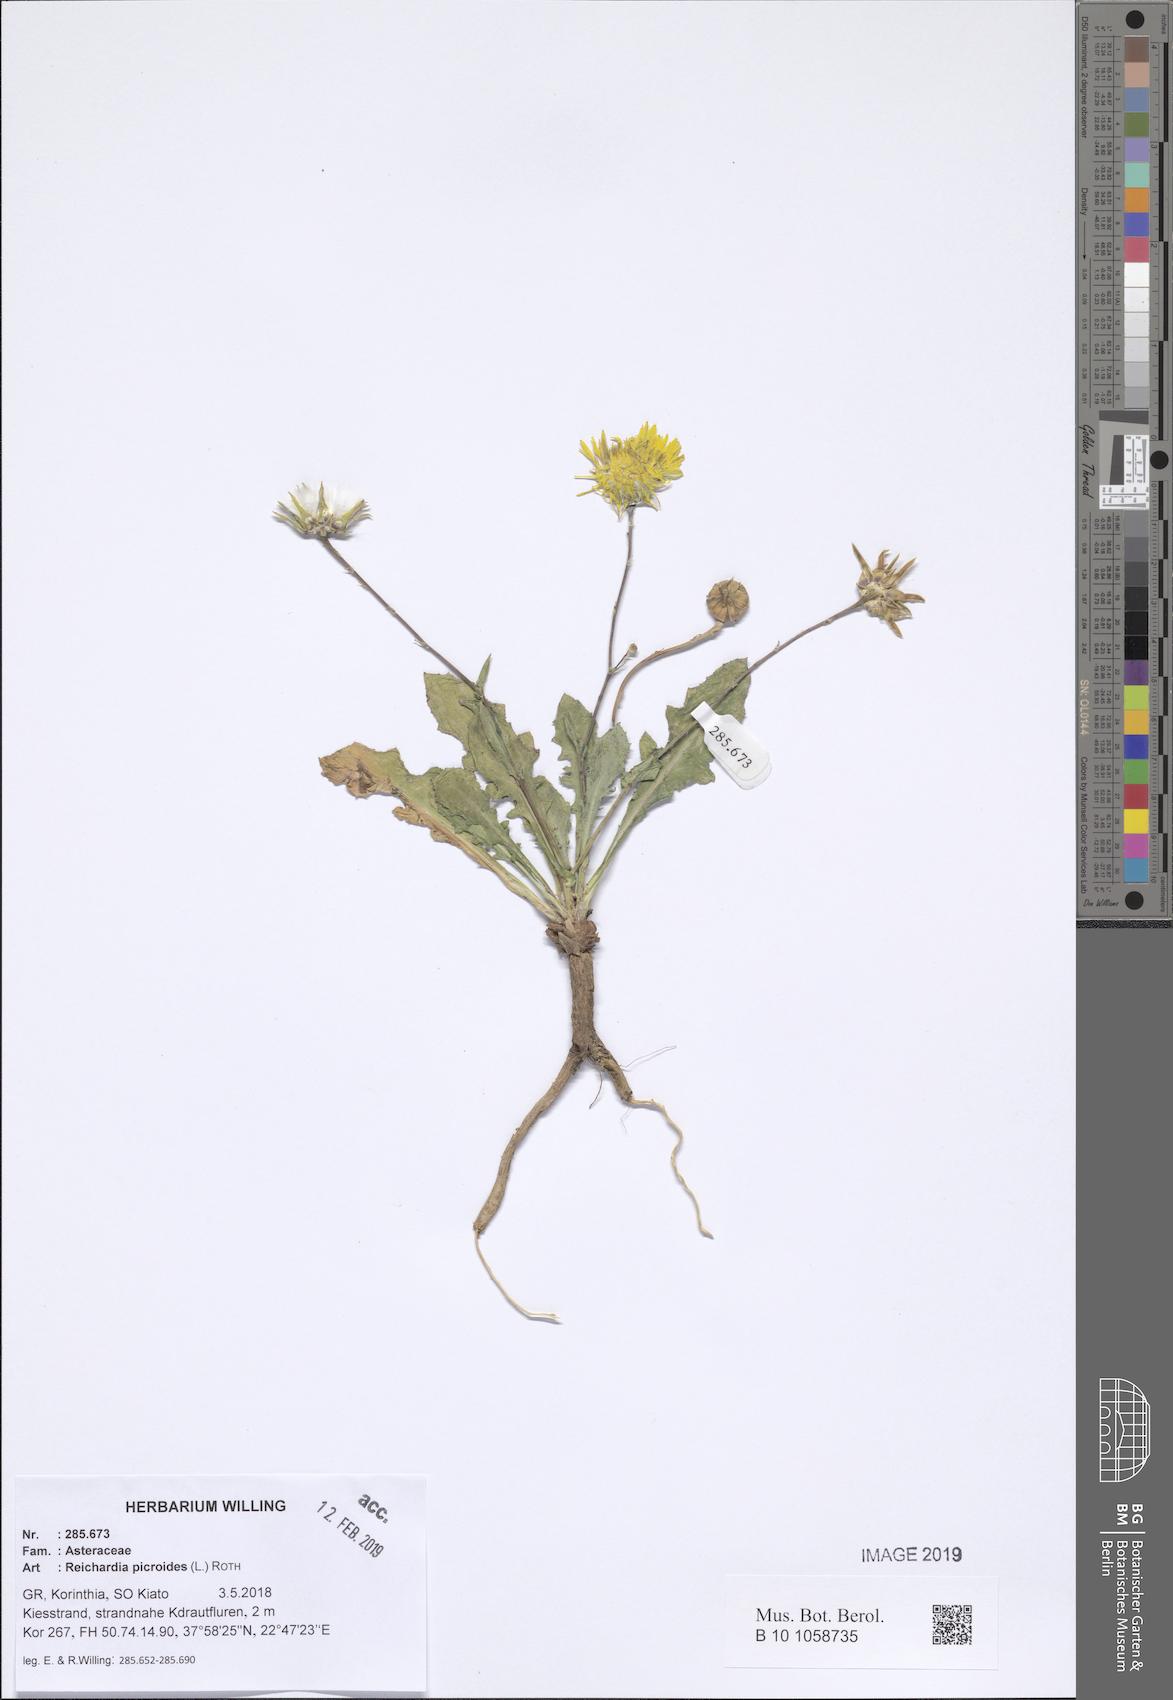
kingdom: Plantae
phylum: Tracheophyta
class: Magnoliopsida
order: Asterales
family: Asteraceae
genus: Reichardia
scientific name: Reichardia picroides
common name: Common brighteyes
